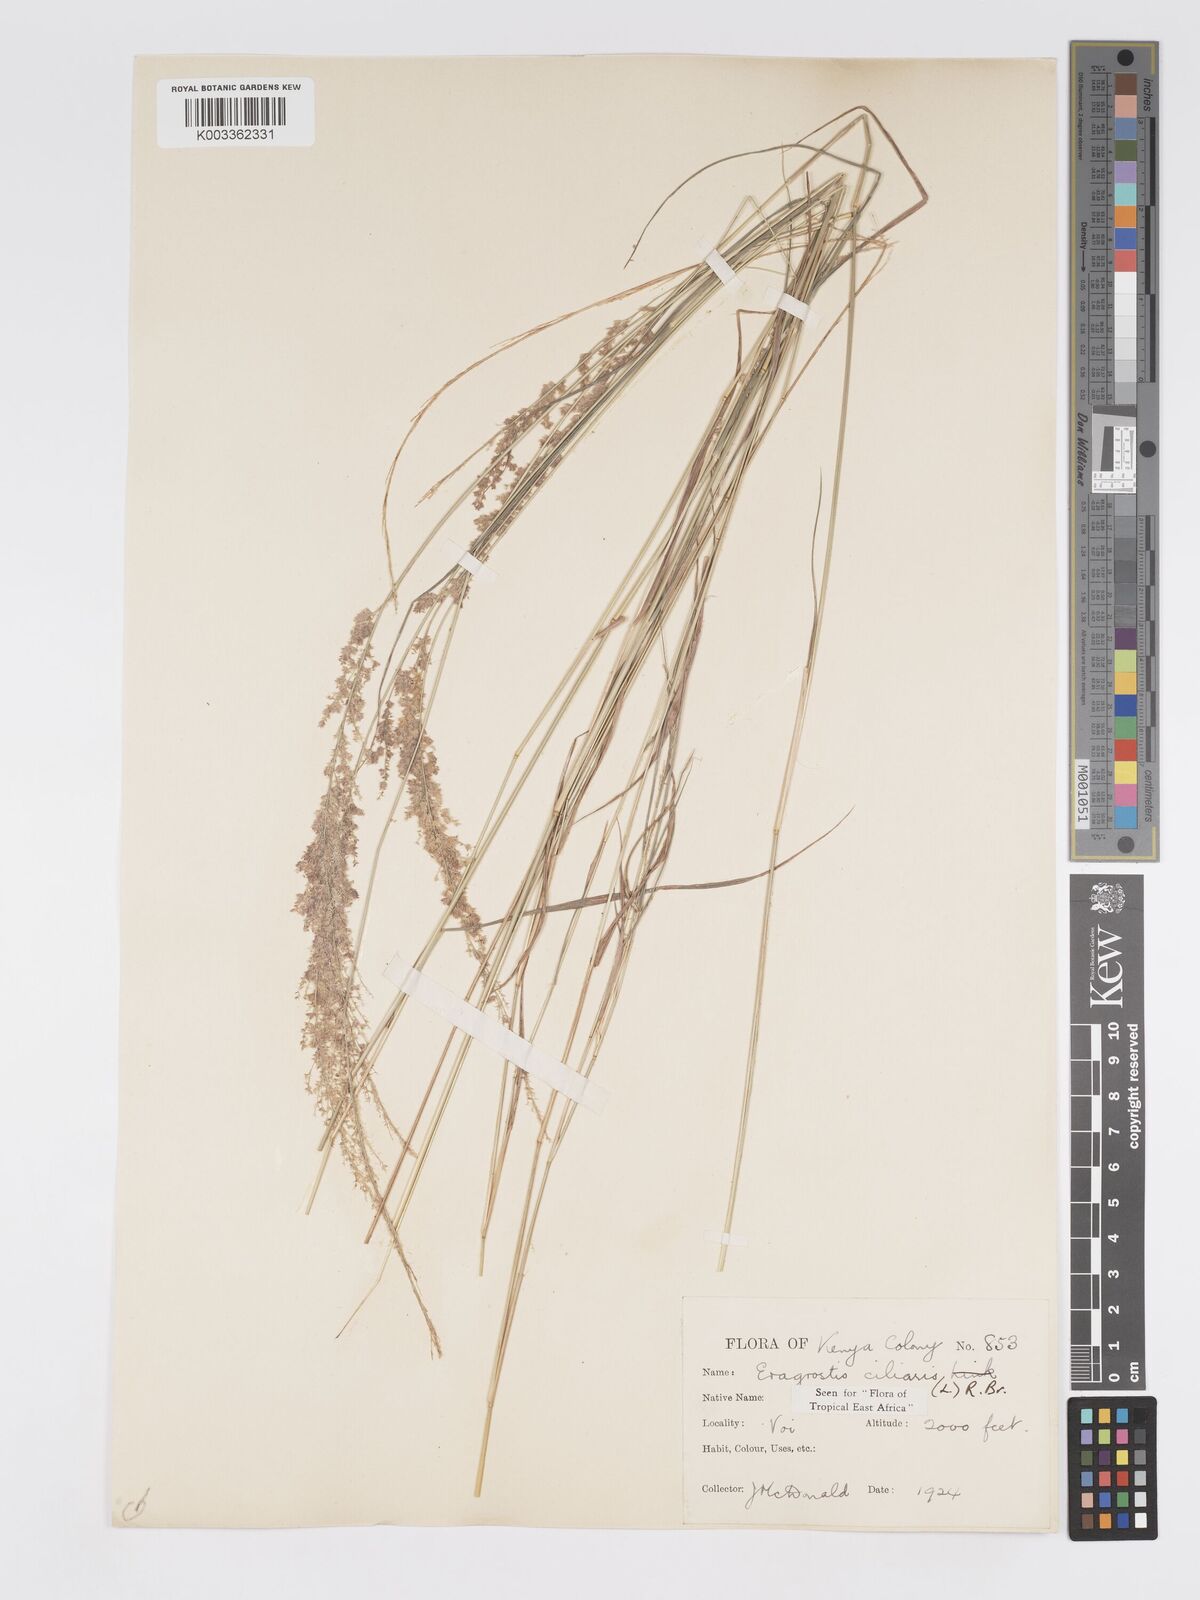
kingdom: Plantae
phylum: Tracheophyta
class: Liliopsida
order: Poales
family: Poaceae
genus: Eragrostis
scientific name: Eragrostis ciliaris
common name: Gophertail lovegrass
